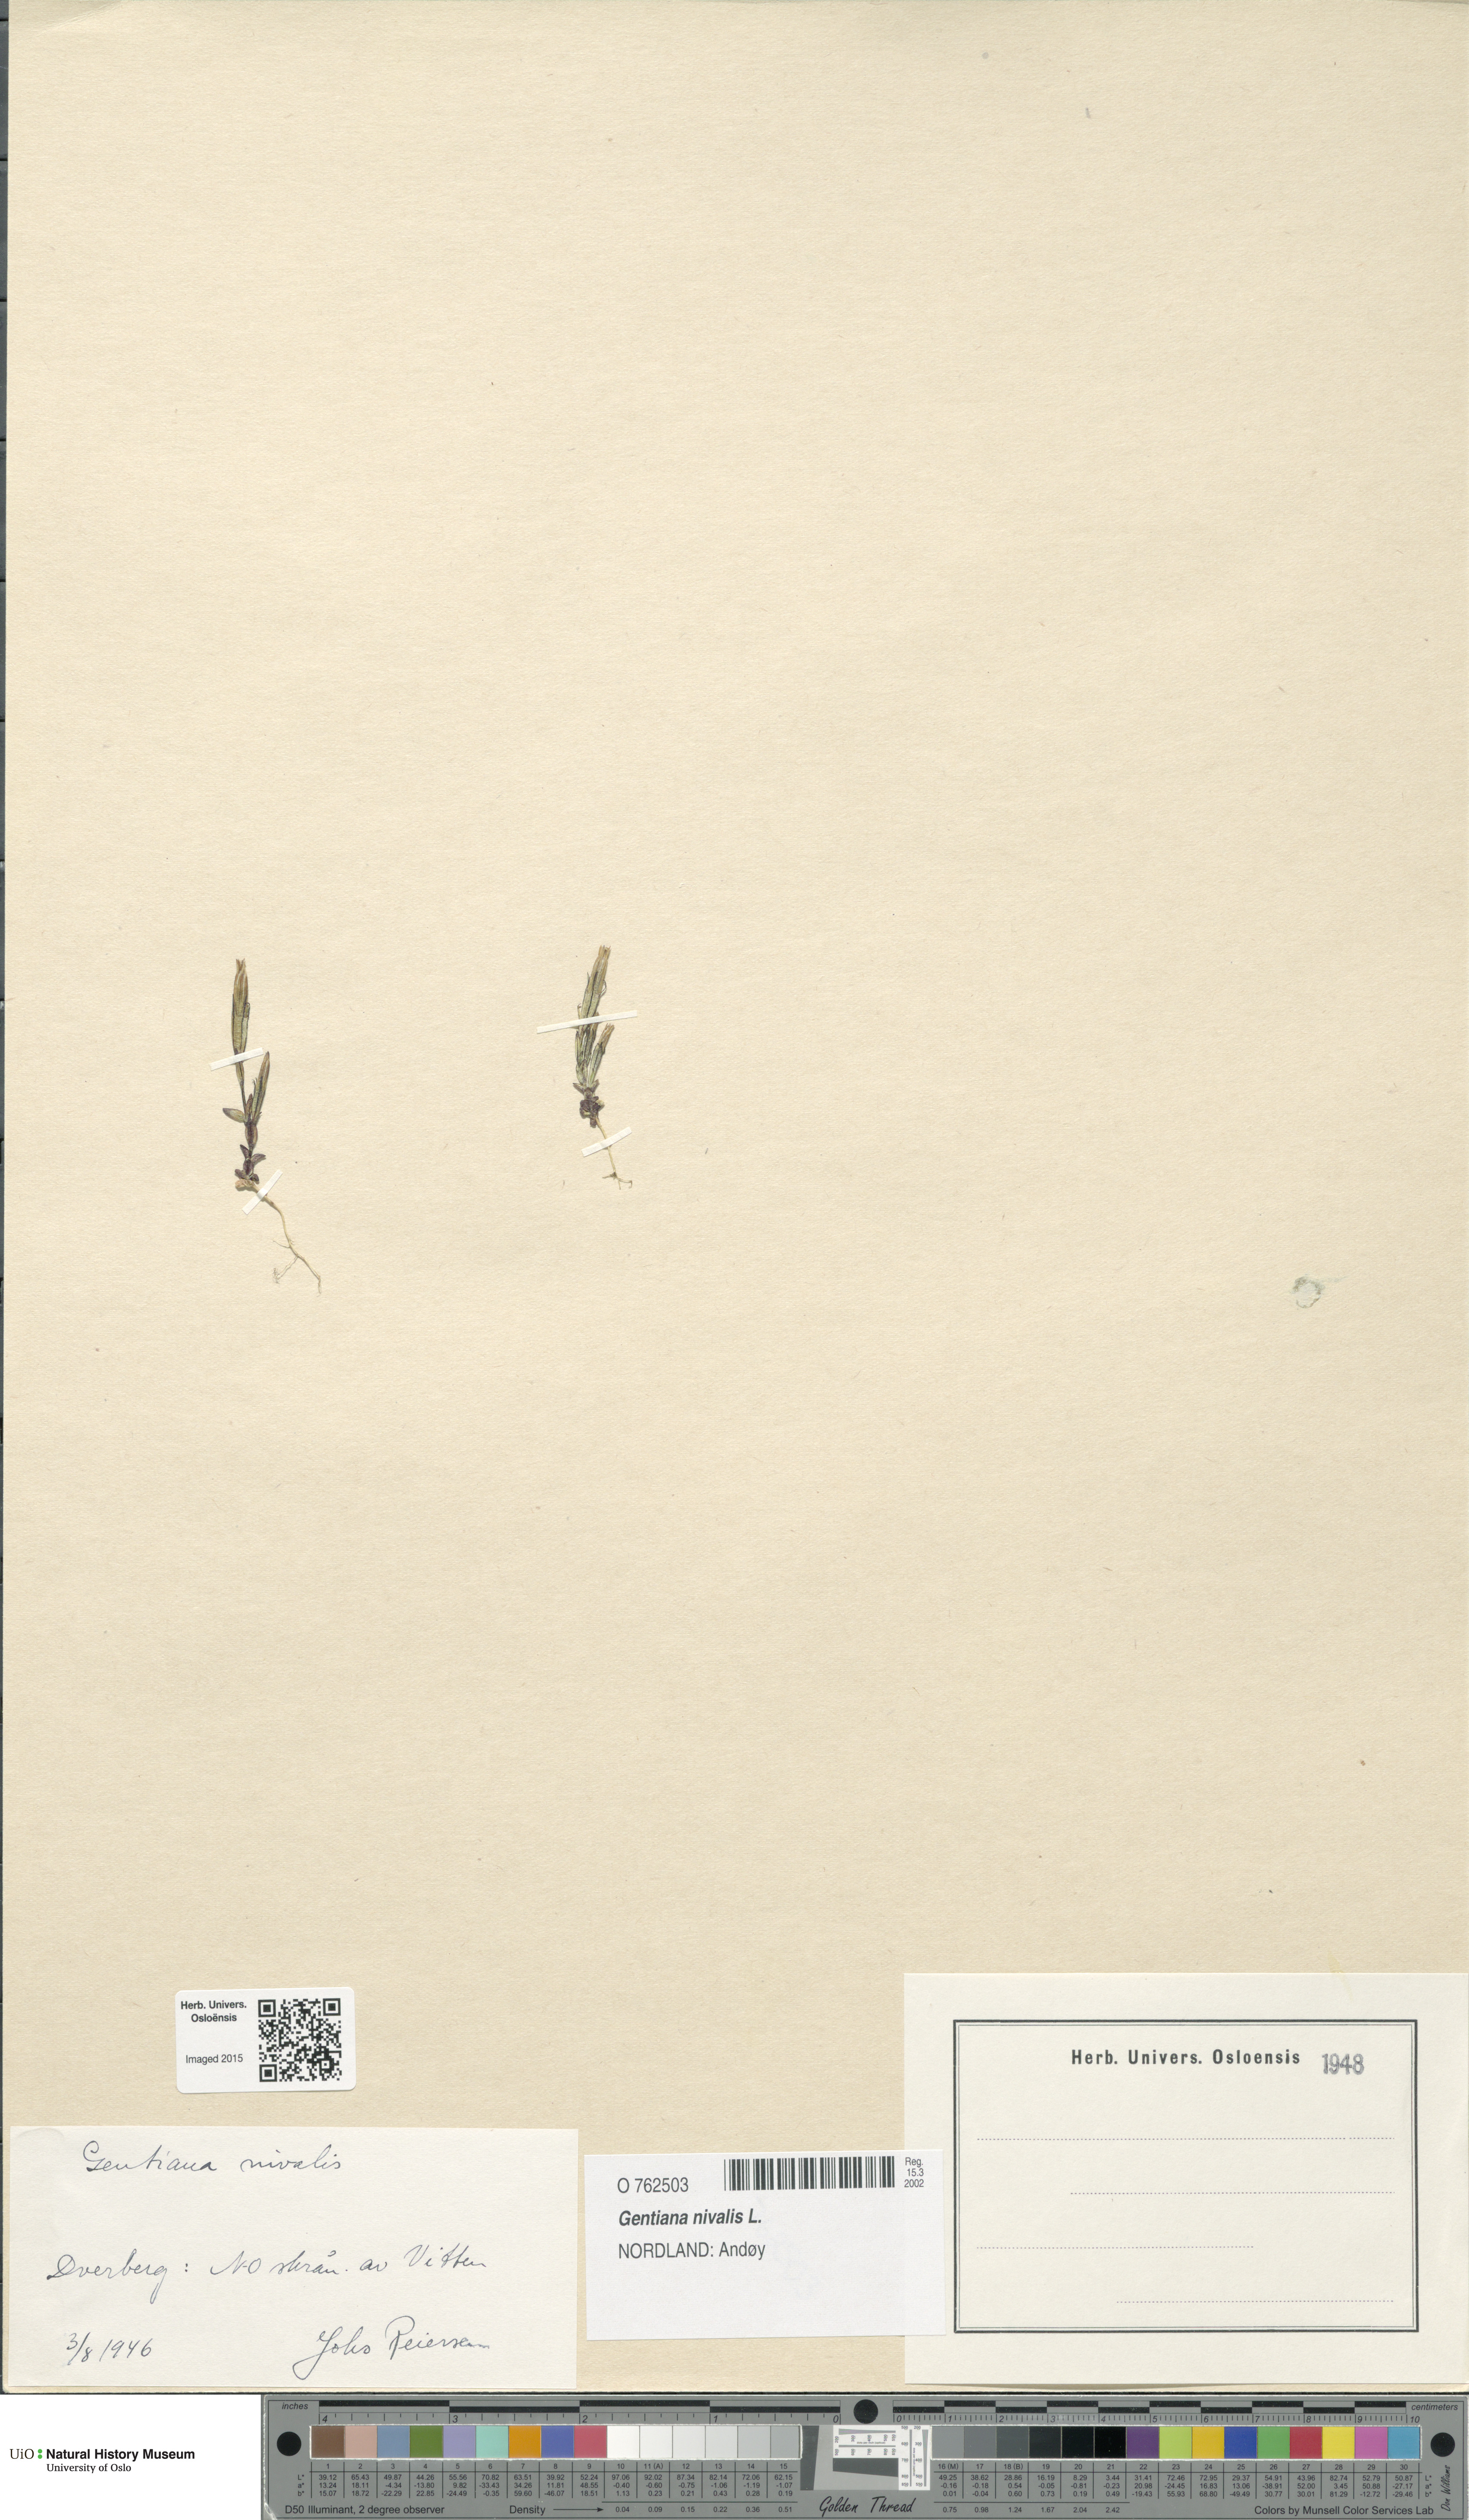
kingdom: Plantae
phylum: Tracheophyta
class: Magnoliopsida
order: Gentianales
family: Gentianaceae
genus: Gentiana
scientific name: Gentiana nivalis
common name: Alpine gentian
